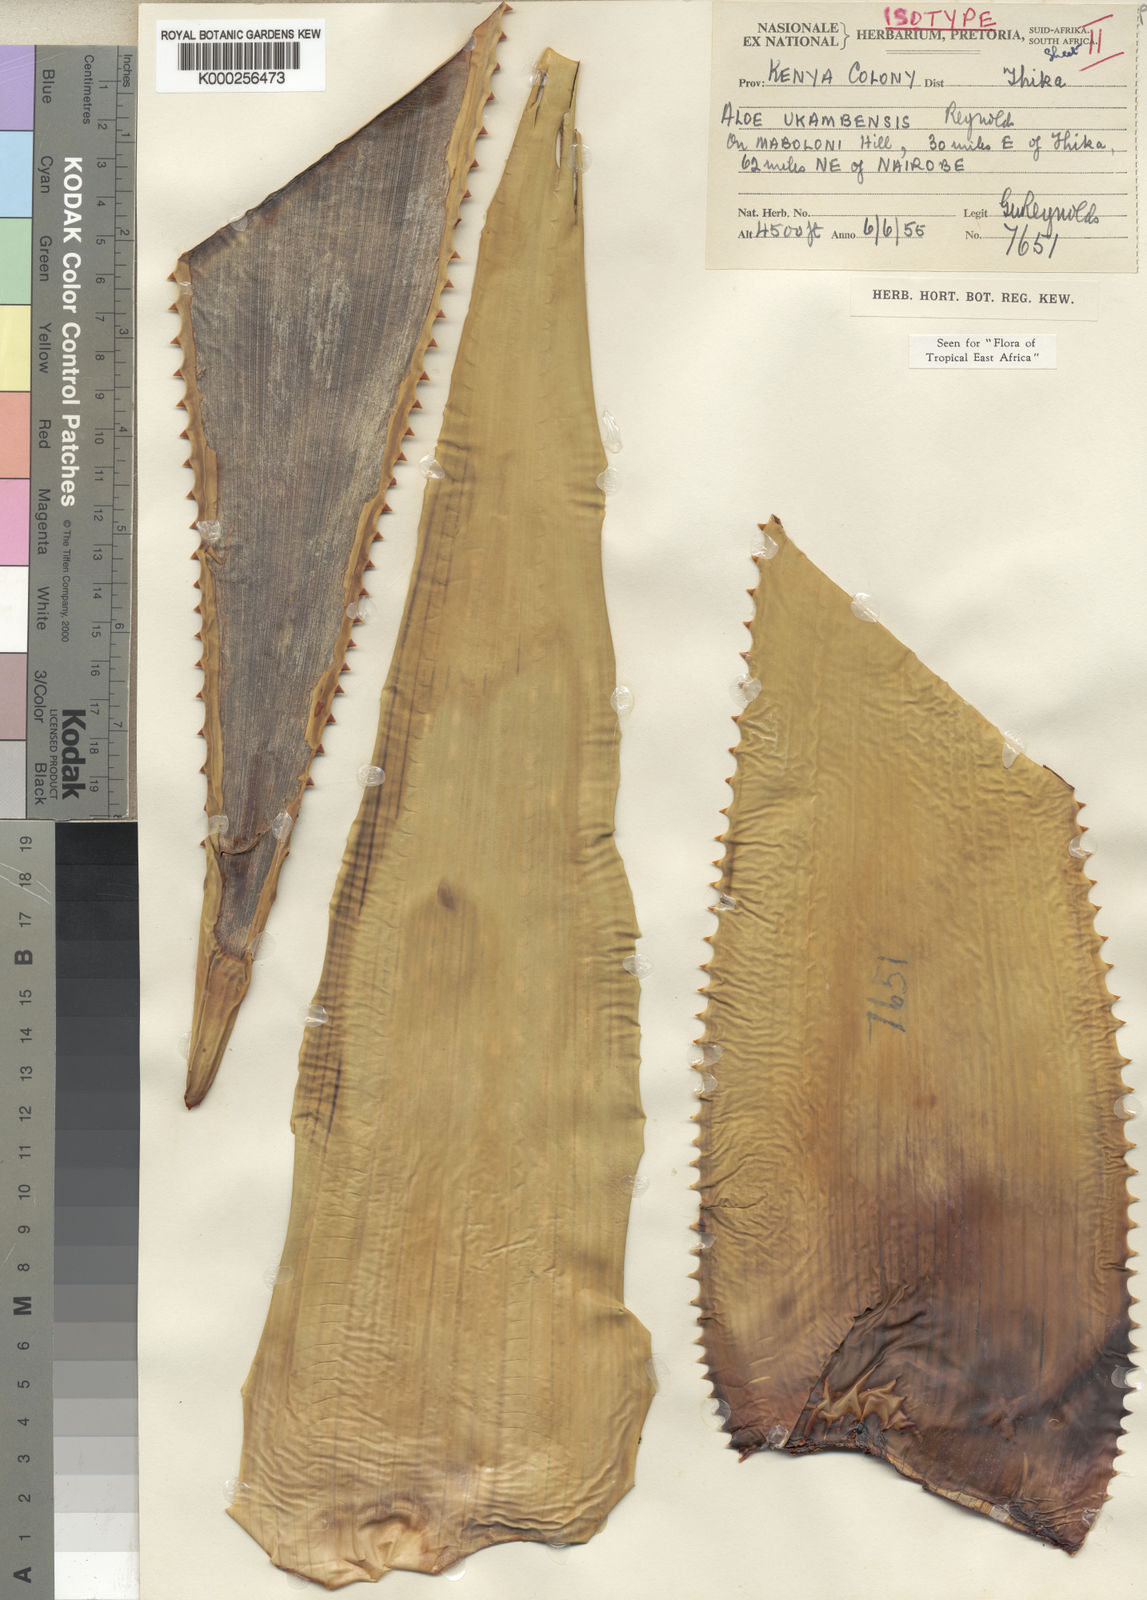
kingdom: Plantae
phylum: Tracheophyta
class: Liliopsida
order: Asparagales
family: Asphodelaceae
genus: Aloe
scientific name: Aloe ukambensis
